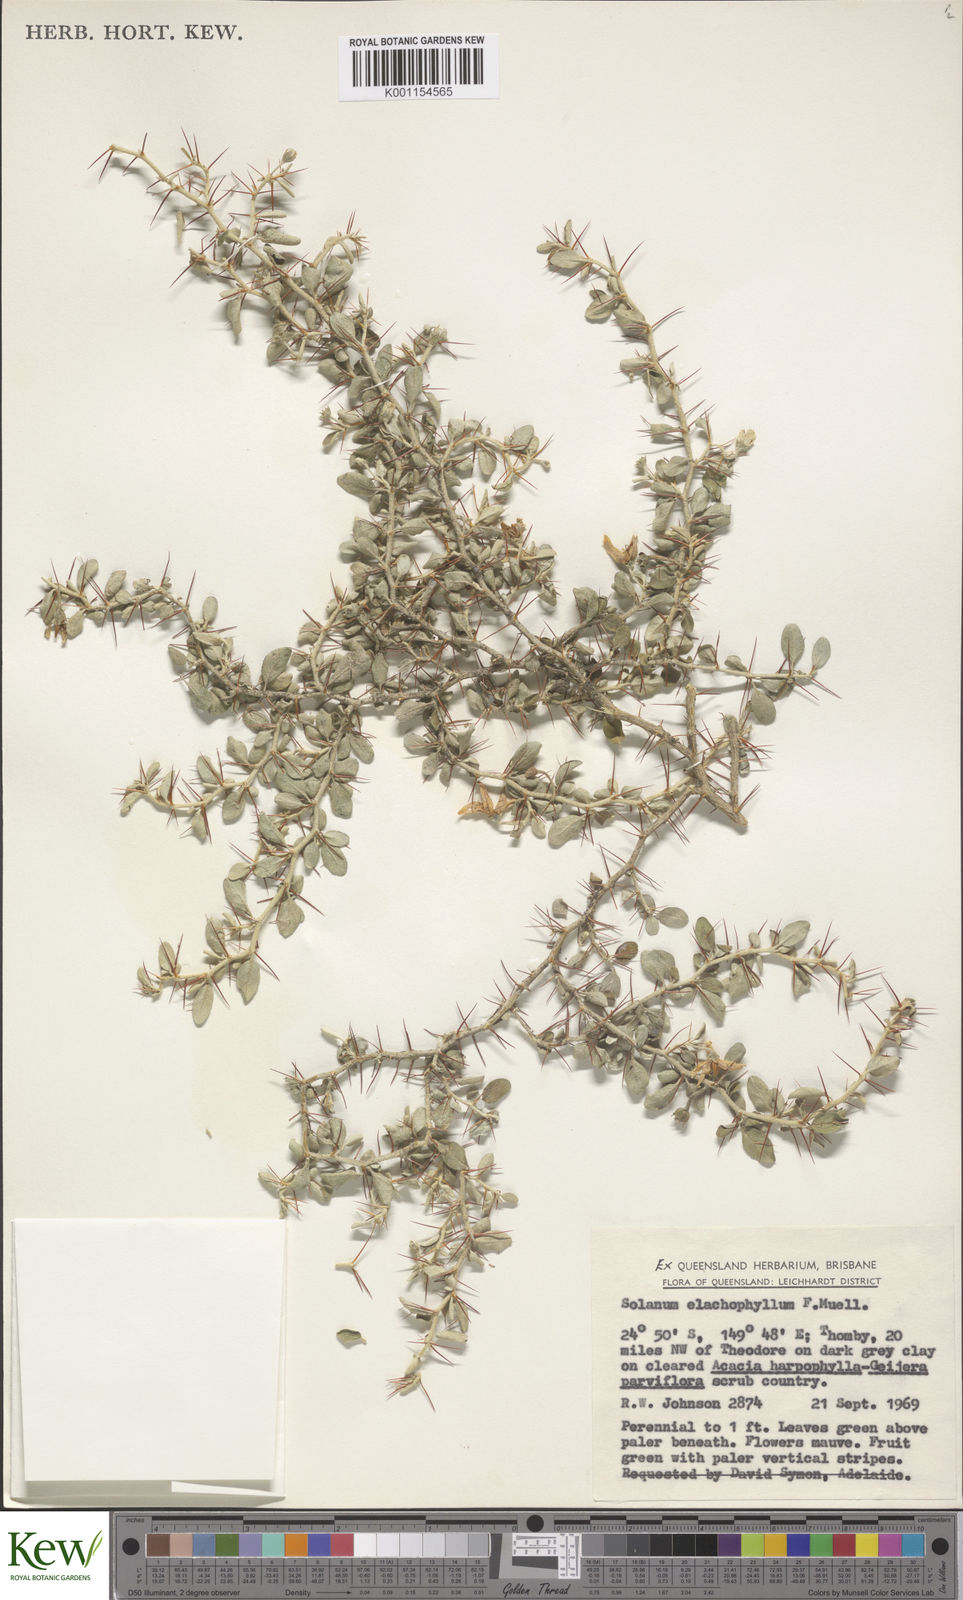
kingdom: Plantae
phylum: Tracheophyta
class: Magnoliopsida
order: Solanales
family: Solanaceae
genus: Solanum
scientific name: Solanum elachophyllum
